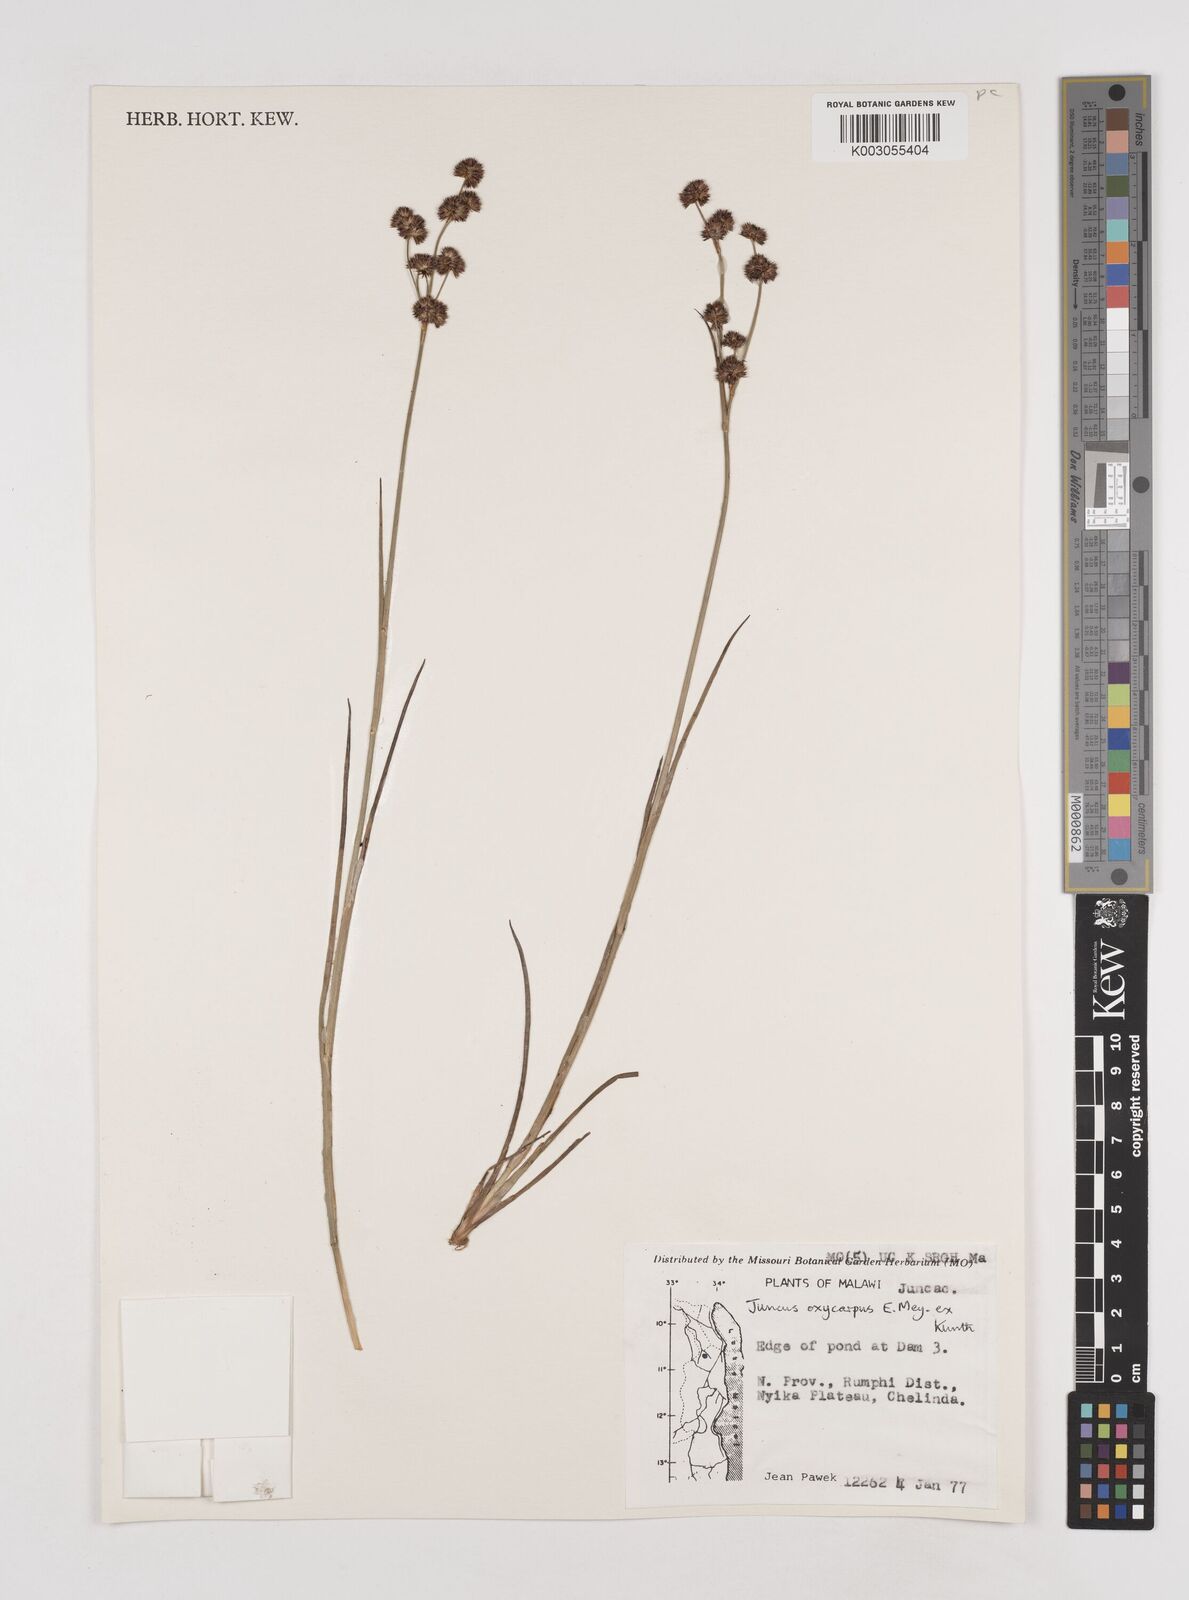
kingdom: Plantae
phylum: Tracheophyta
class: Liliopsida
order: Poales
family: Juncaceae
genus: Juncus
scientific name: Juncus oxycarpus
